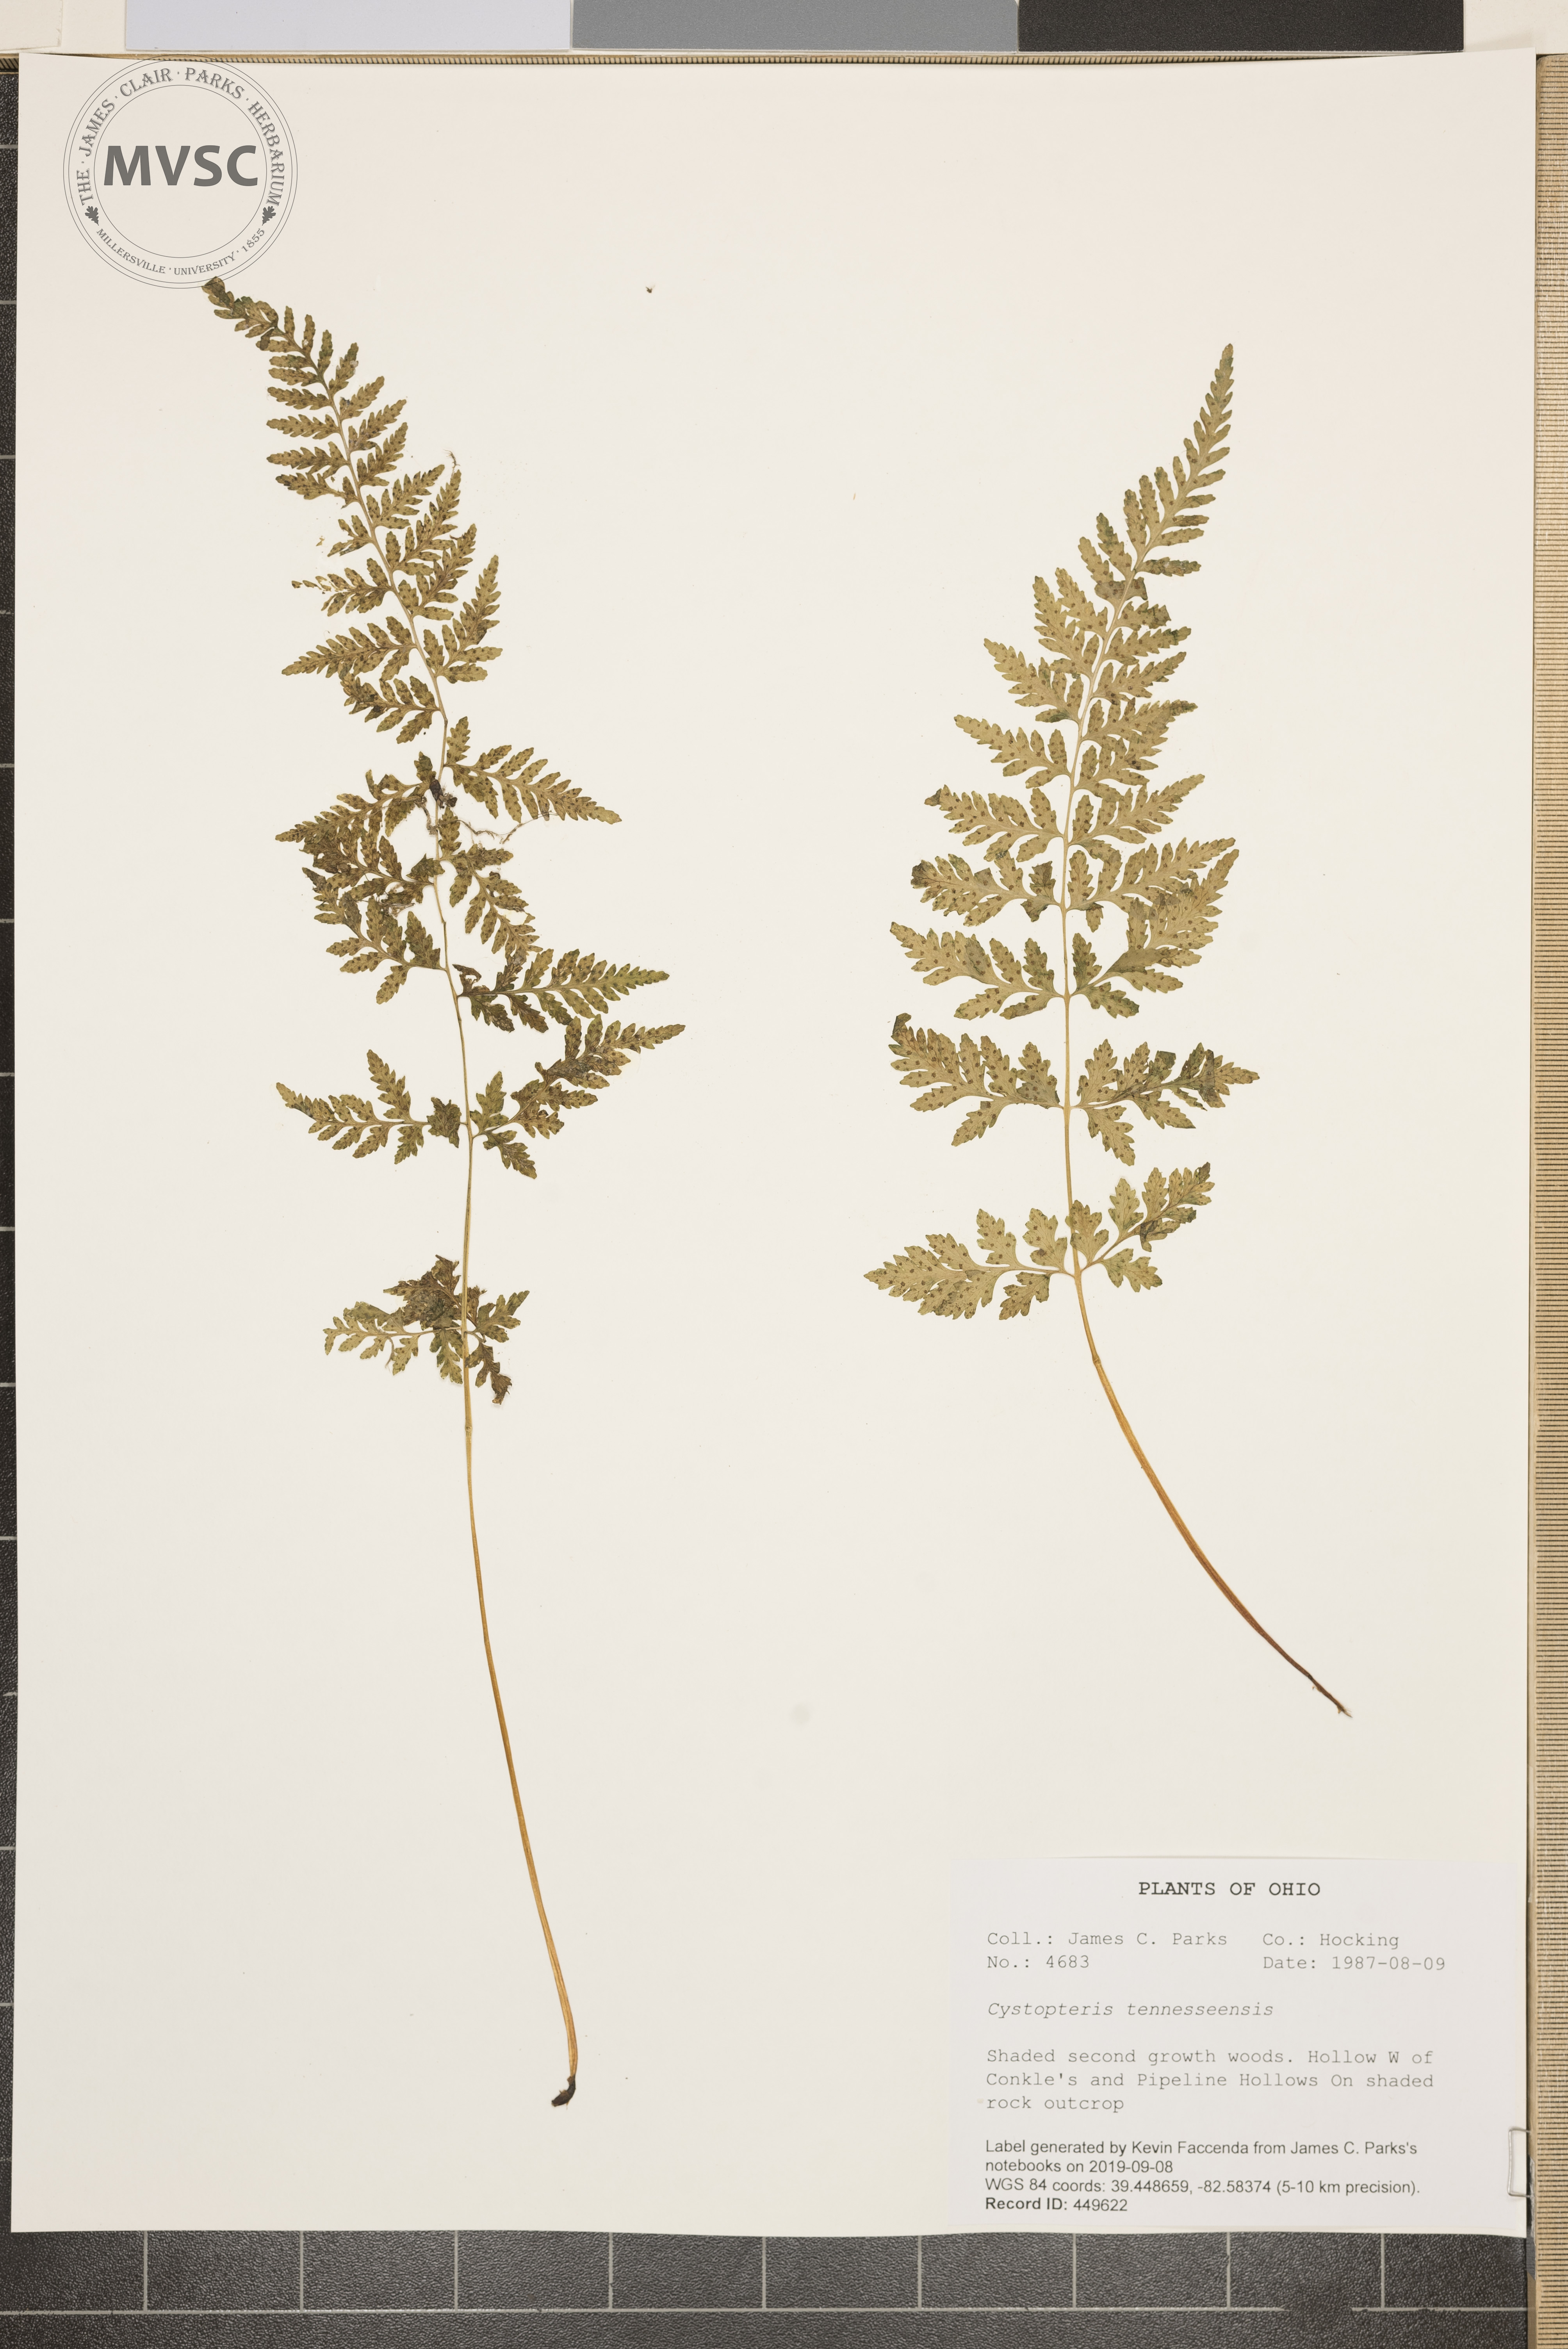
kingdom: Plantae
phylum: Tracheophyta
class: Polypodiopsida
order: Polypodiales
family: Cystopteridaceae
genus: Cystopteris
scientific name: Cystopteris tennesseensis
